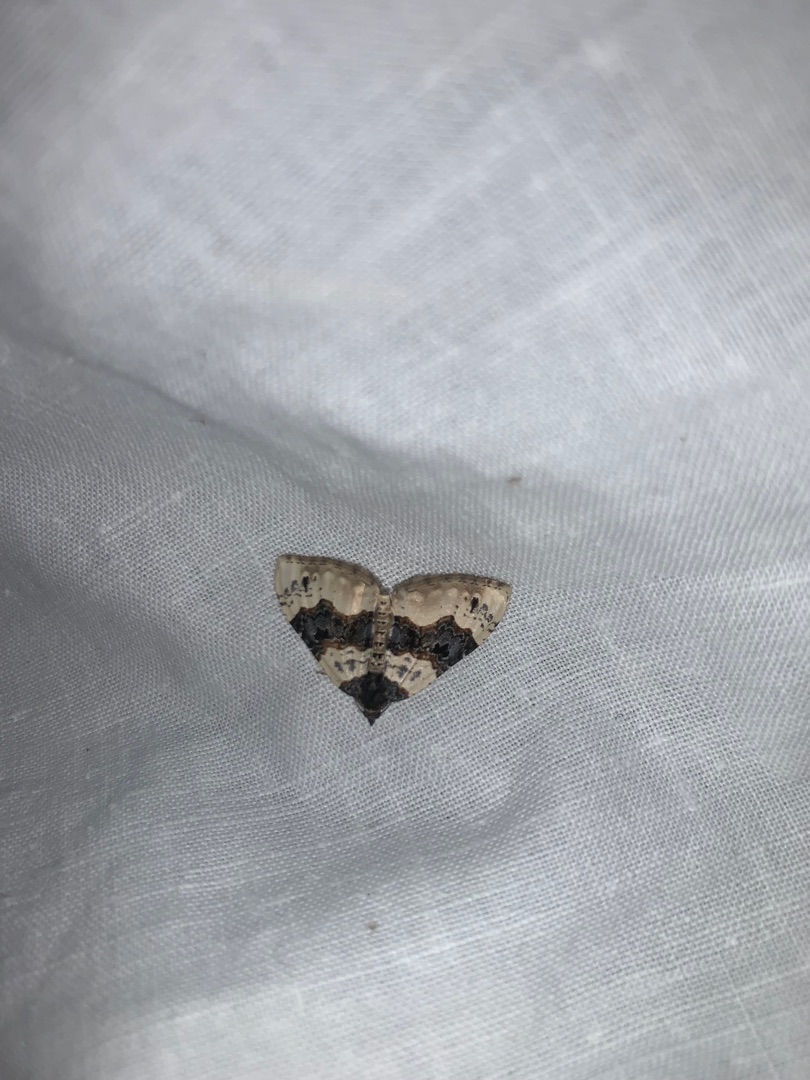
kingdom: Animalia
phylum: Arthropoda
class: Insecta
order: Lepidoptera
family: Geometridae
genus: Cosmorhoe
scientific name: Cosmorhoe ocellata
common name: Snerre-bladmåler
